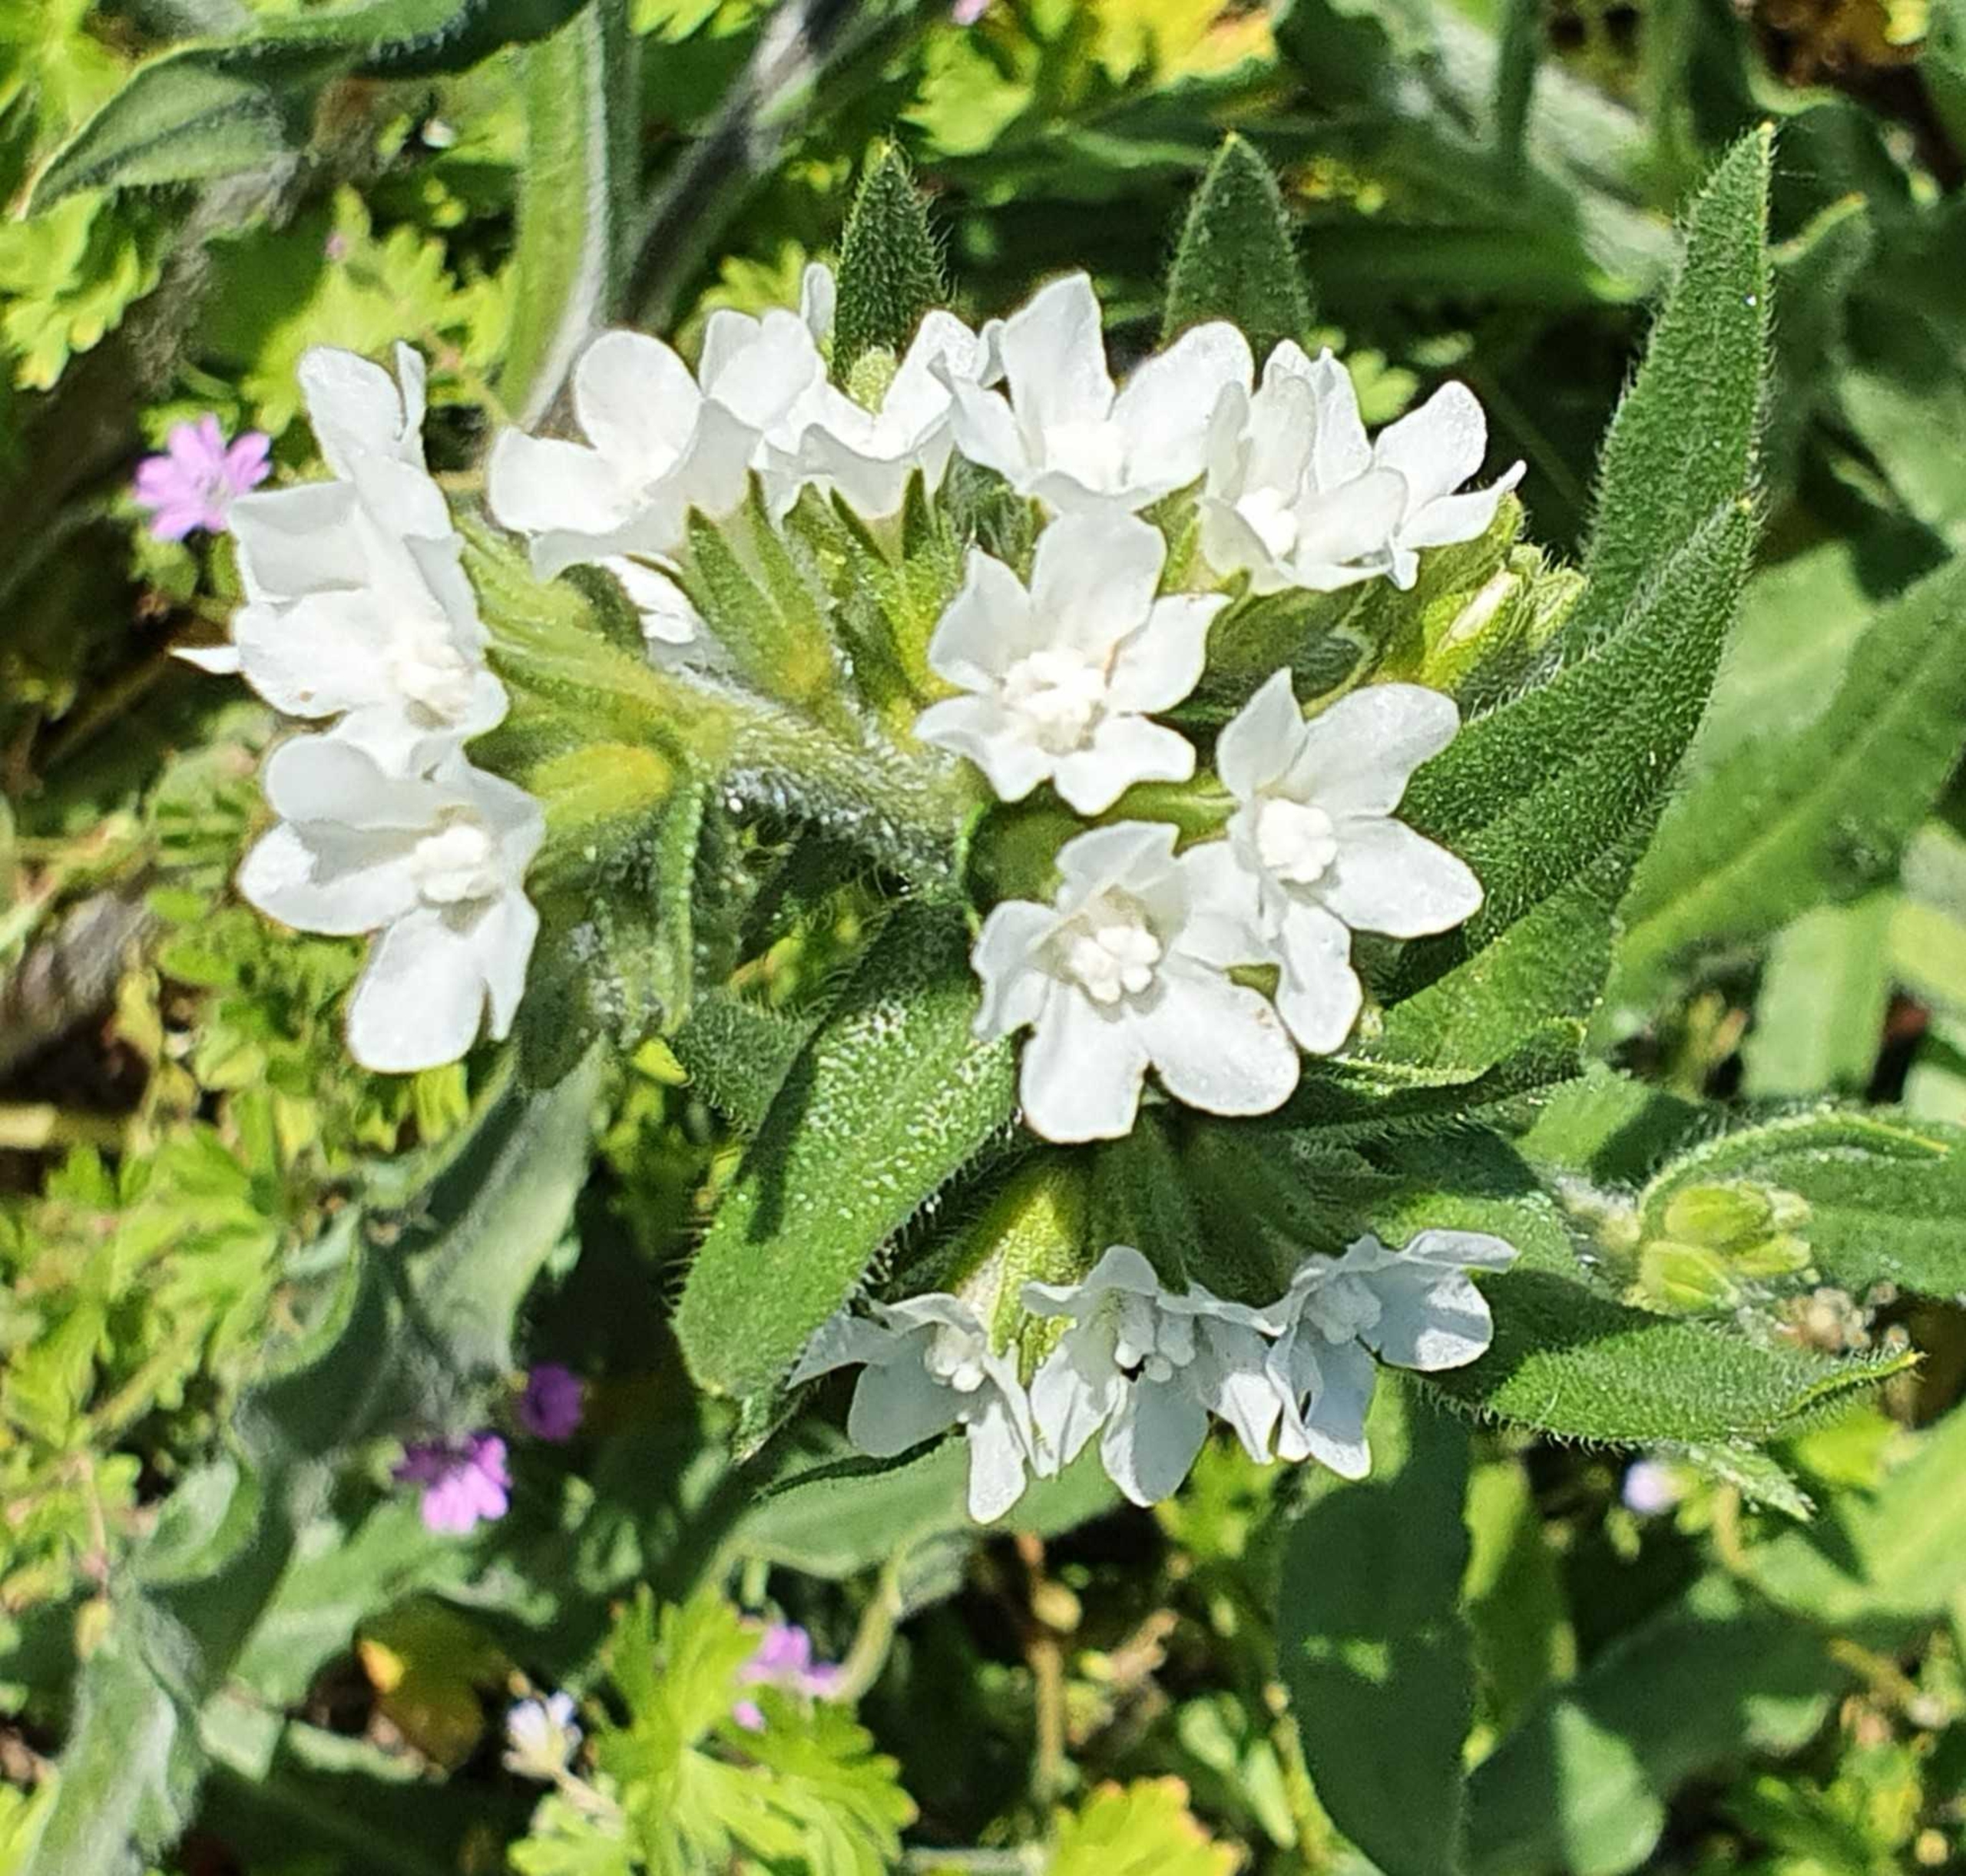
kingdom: Plantae
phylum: Tracheophyta
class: Magnoliopsida
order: Boraginales
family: Boraginaceae
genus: Anchusa
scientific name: Anchusa officinalis
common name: Læge-oksetunge
